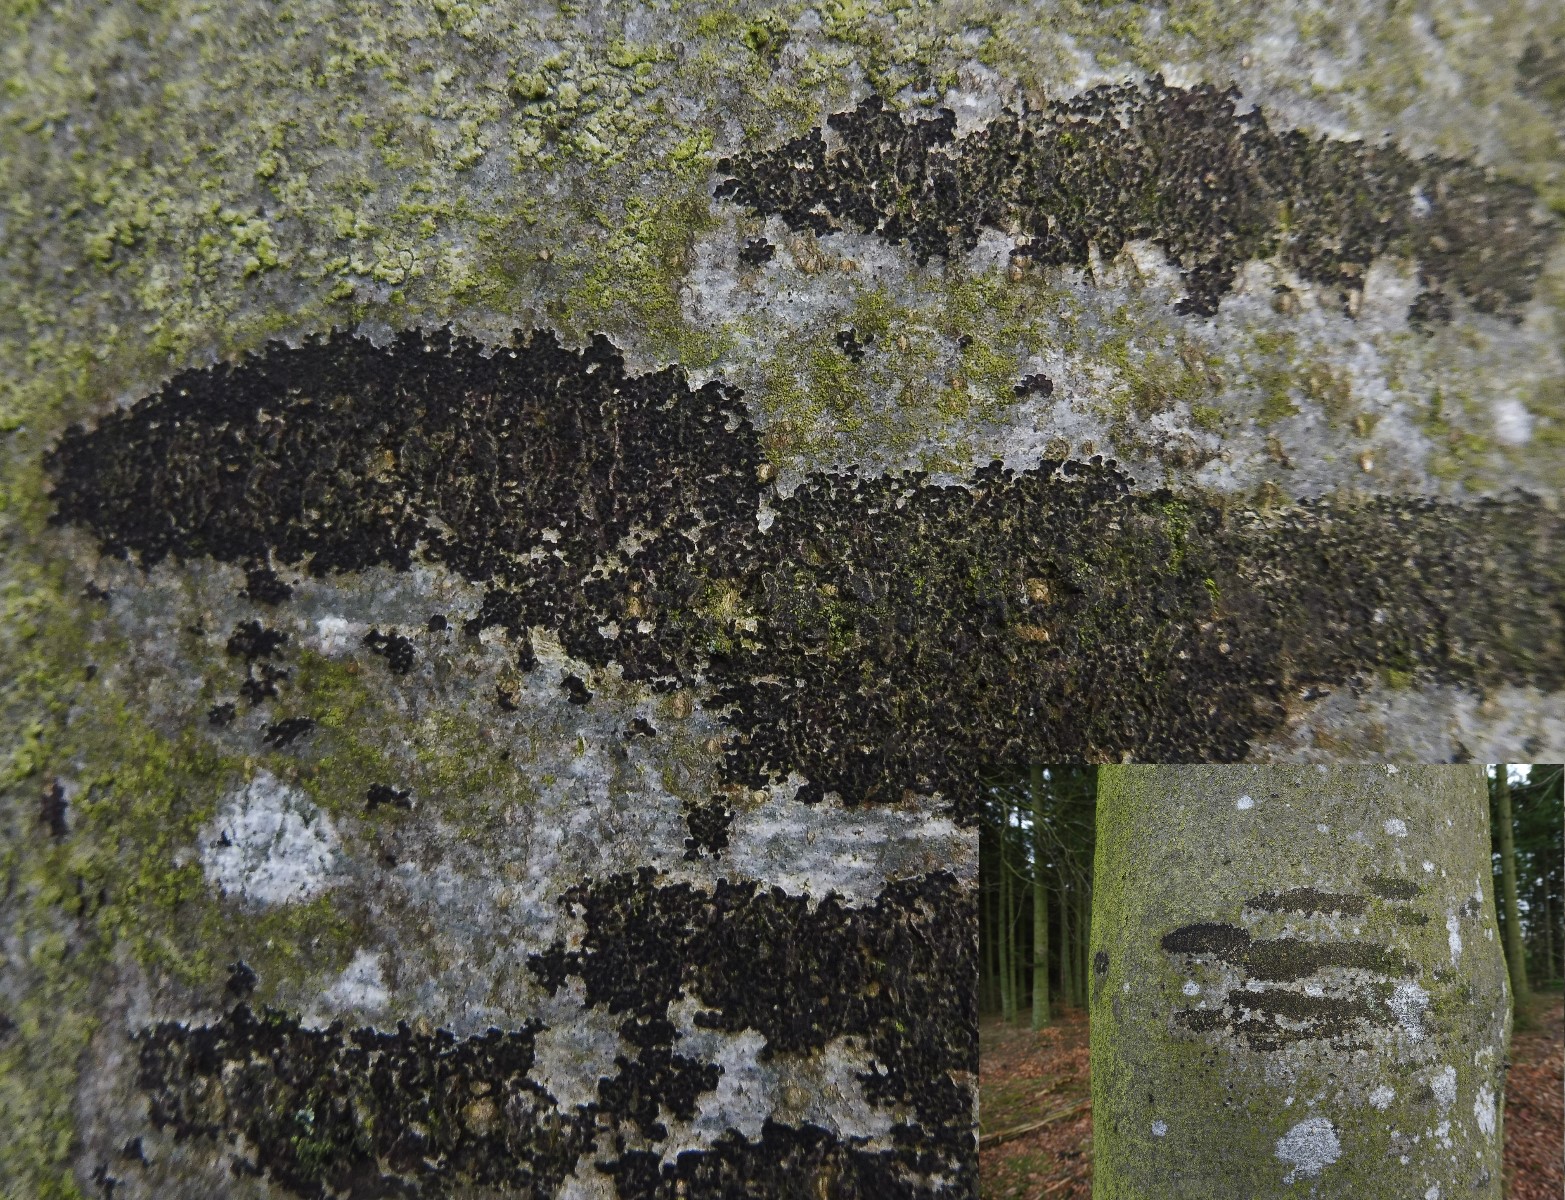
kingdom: Fungi
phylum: Ascomycota
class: Leotiomycetes
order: Rhytismatales
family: Ascodichaenaceae
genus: Ascodichaena
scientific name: Ascodichaena rugosa
